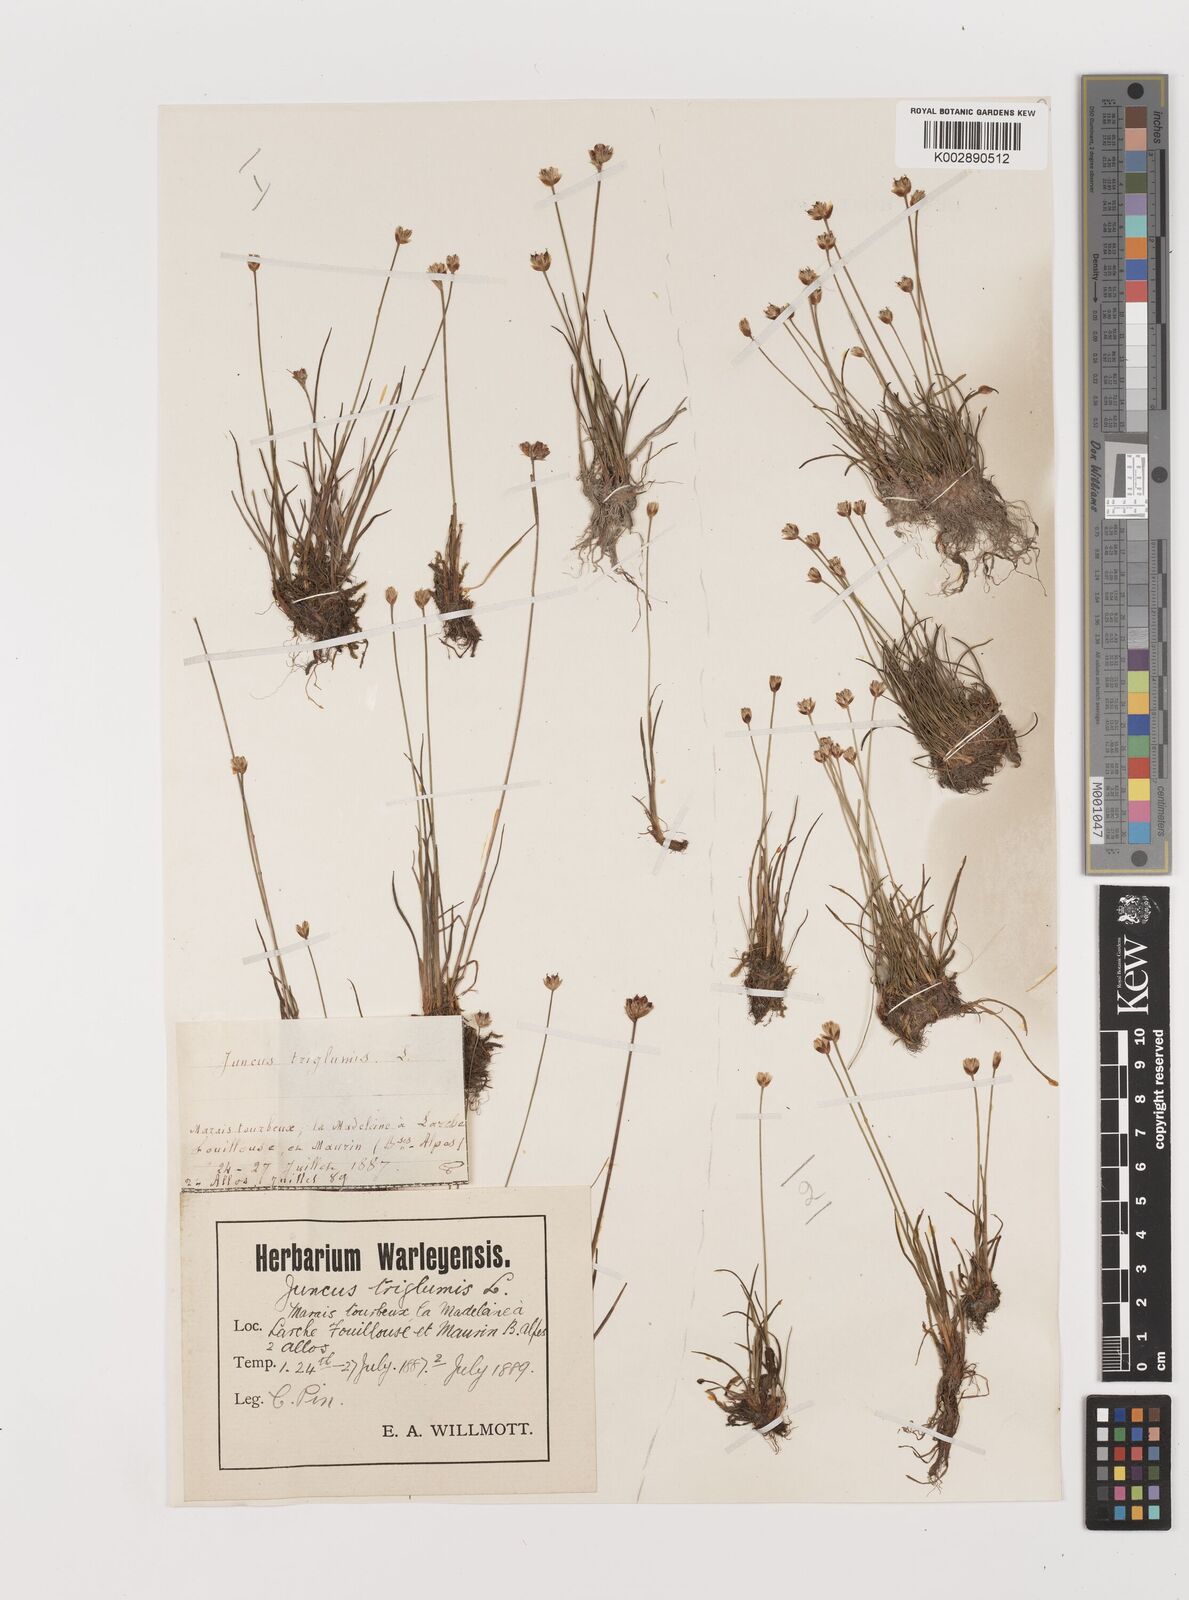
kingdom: Plantae
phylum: Tracheophyta
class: Liliopsida
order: Poales
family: Juncaceae
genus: Juncus
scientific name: Juncus triglumis
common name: Three-flowered rush
